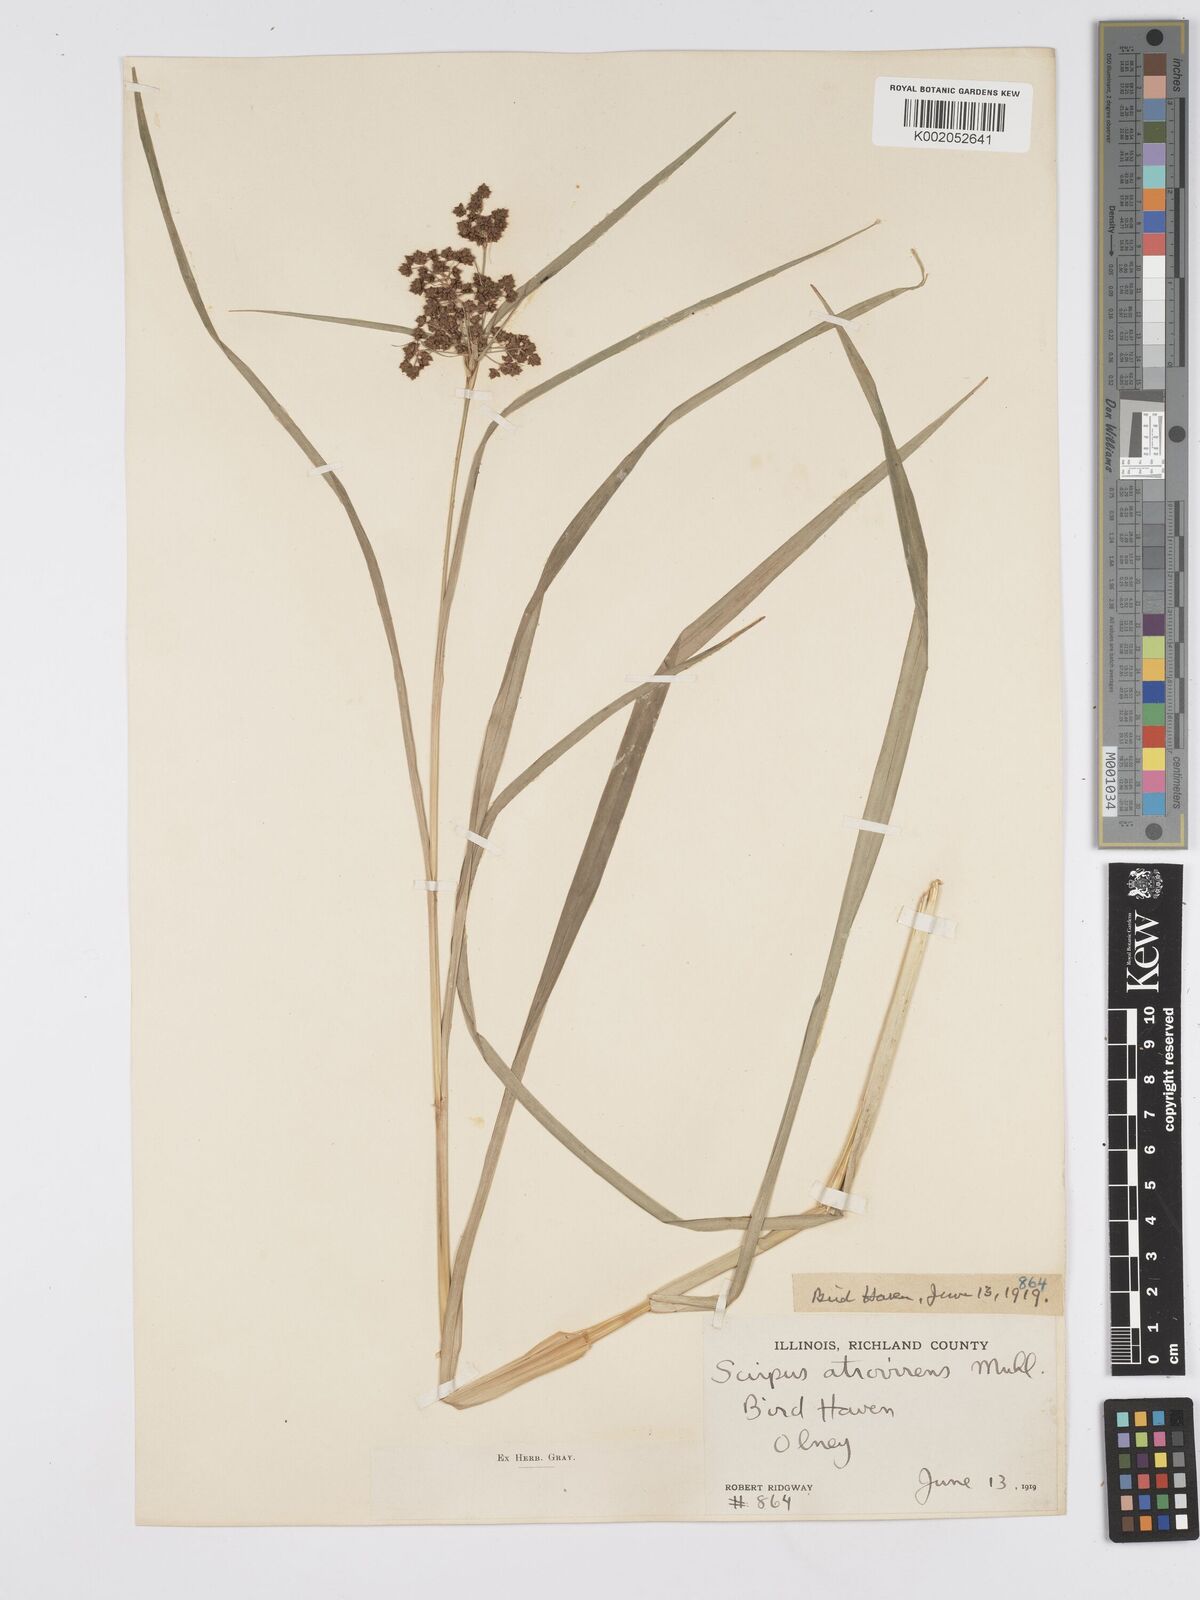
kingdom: Plantae
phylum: Tracheophyta
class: Liliopsida
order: Poales
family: Cyperaceae
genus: Scirpus
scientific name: Scirpus atrovirens
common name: Black bulrush
